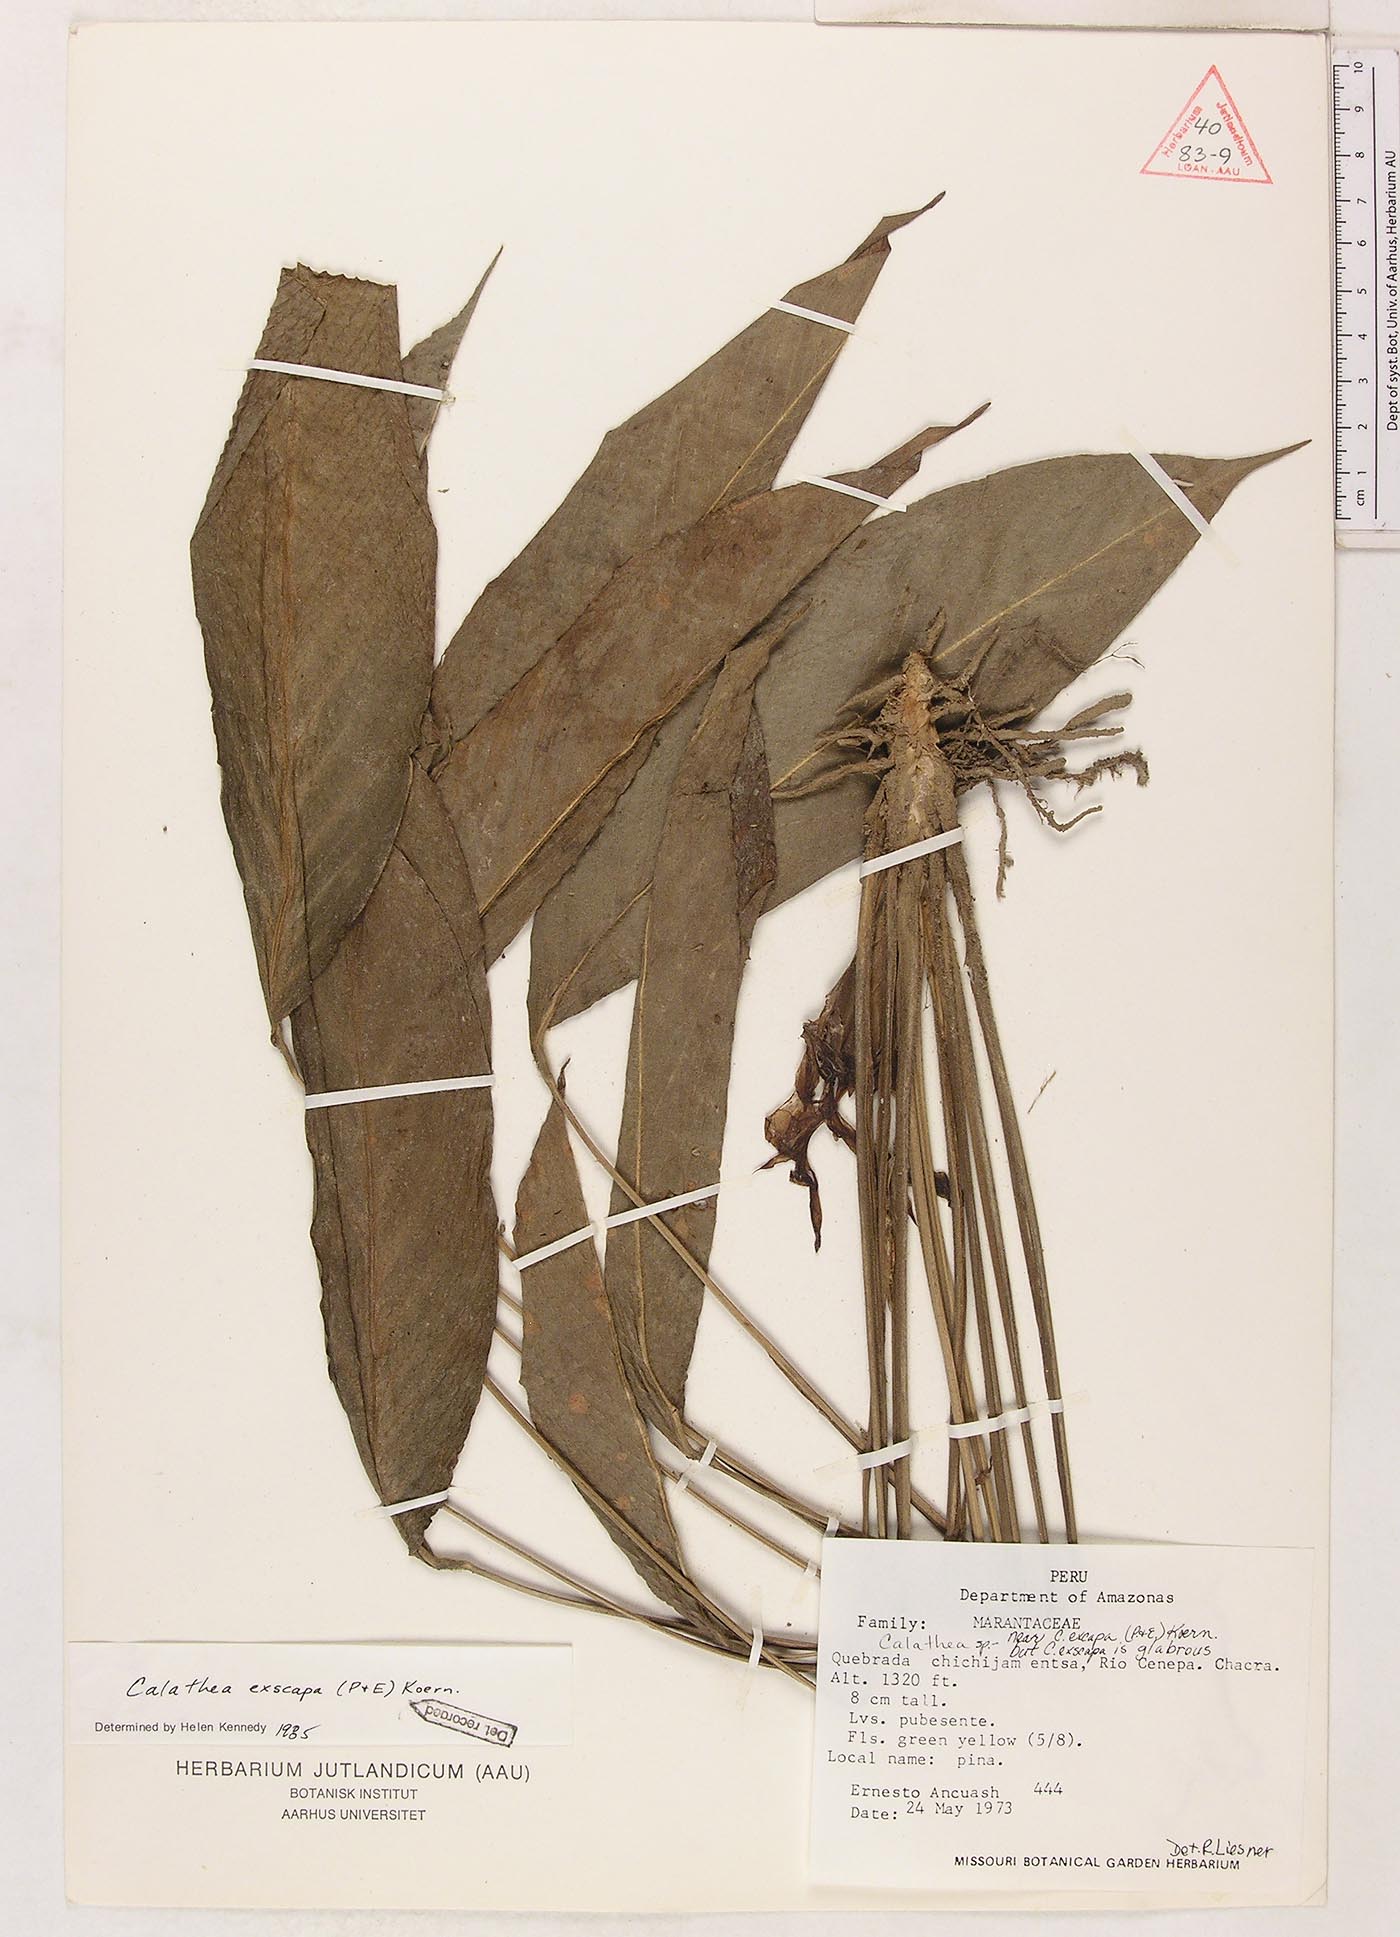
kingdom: Plantae
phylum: Tracheophyta
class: Liliopsida
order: Zingiberales
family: Marantaceae
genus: Goeppertia
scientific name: Goeppertia exscapa
